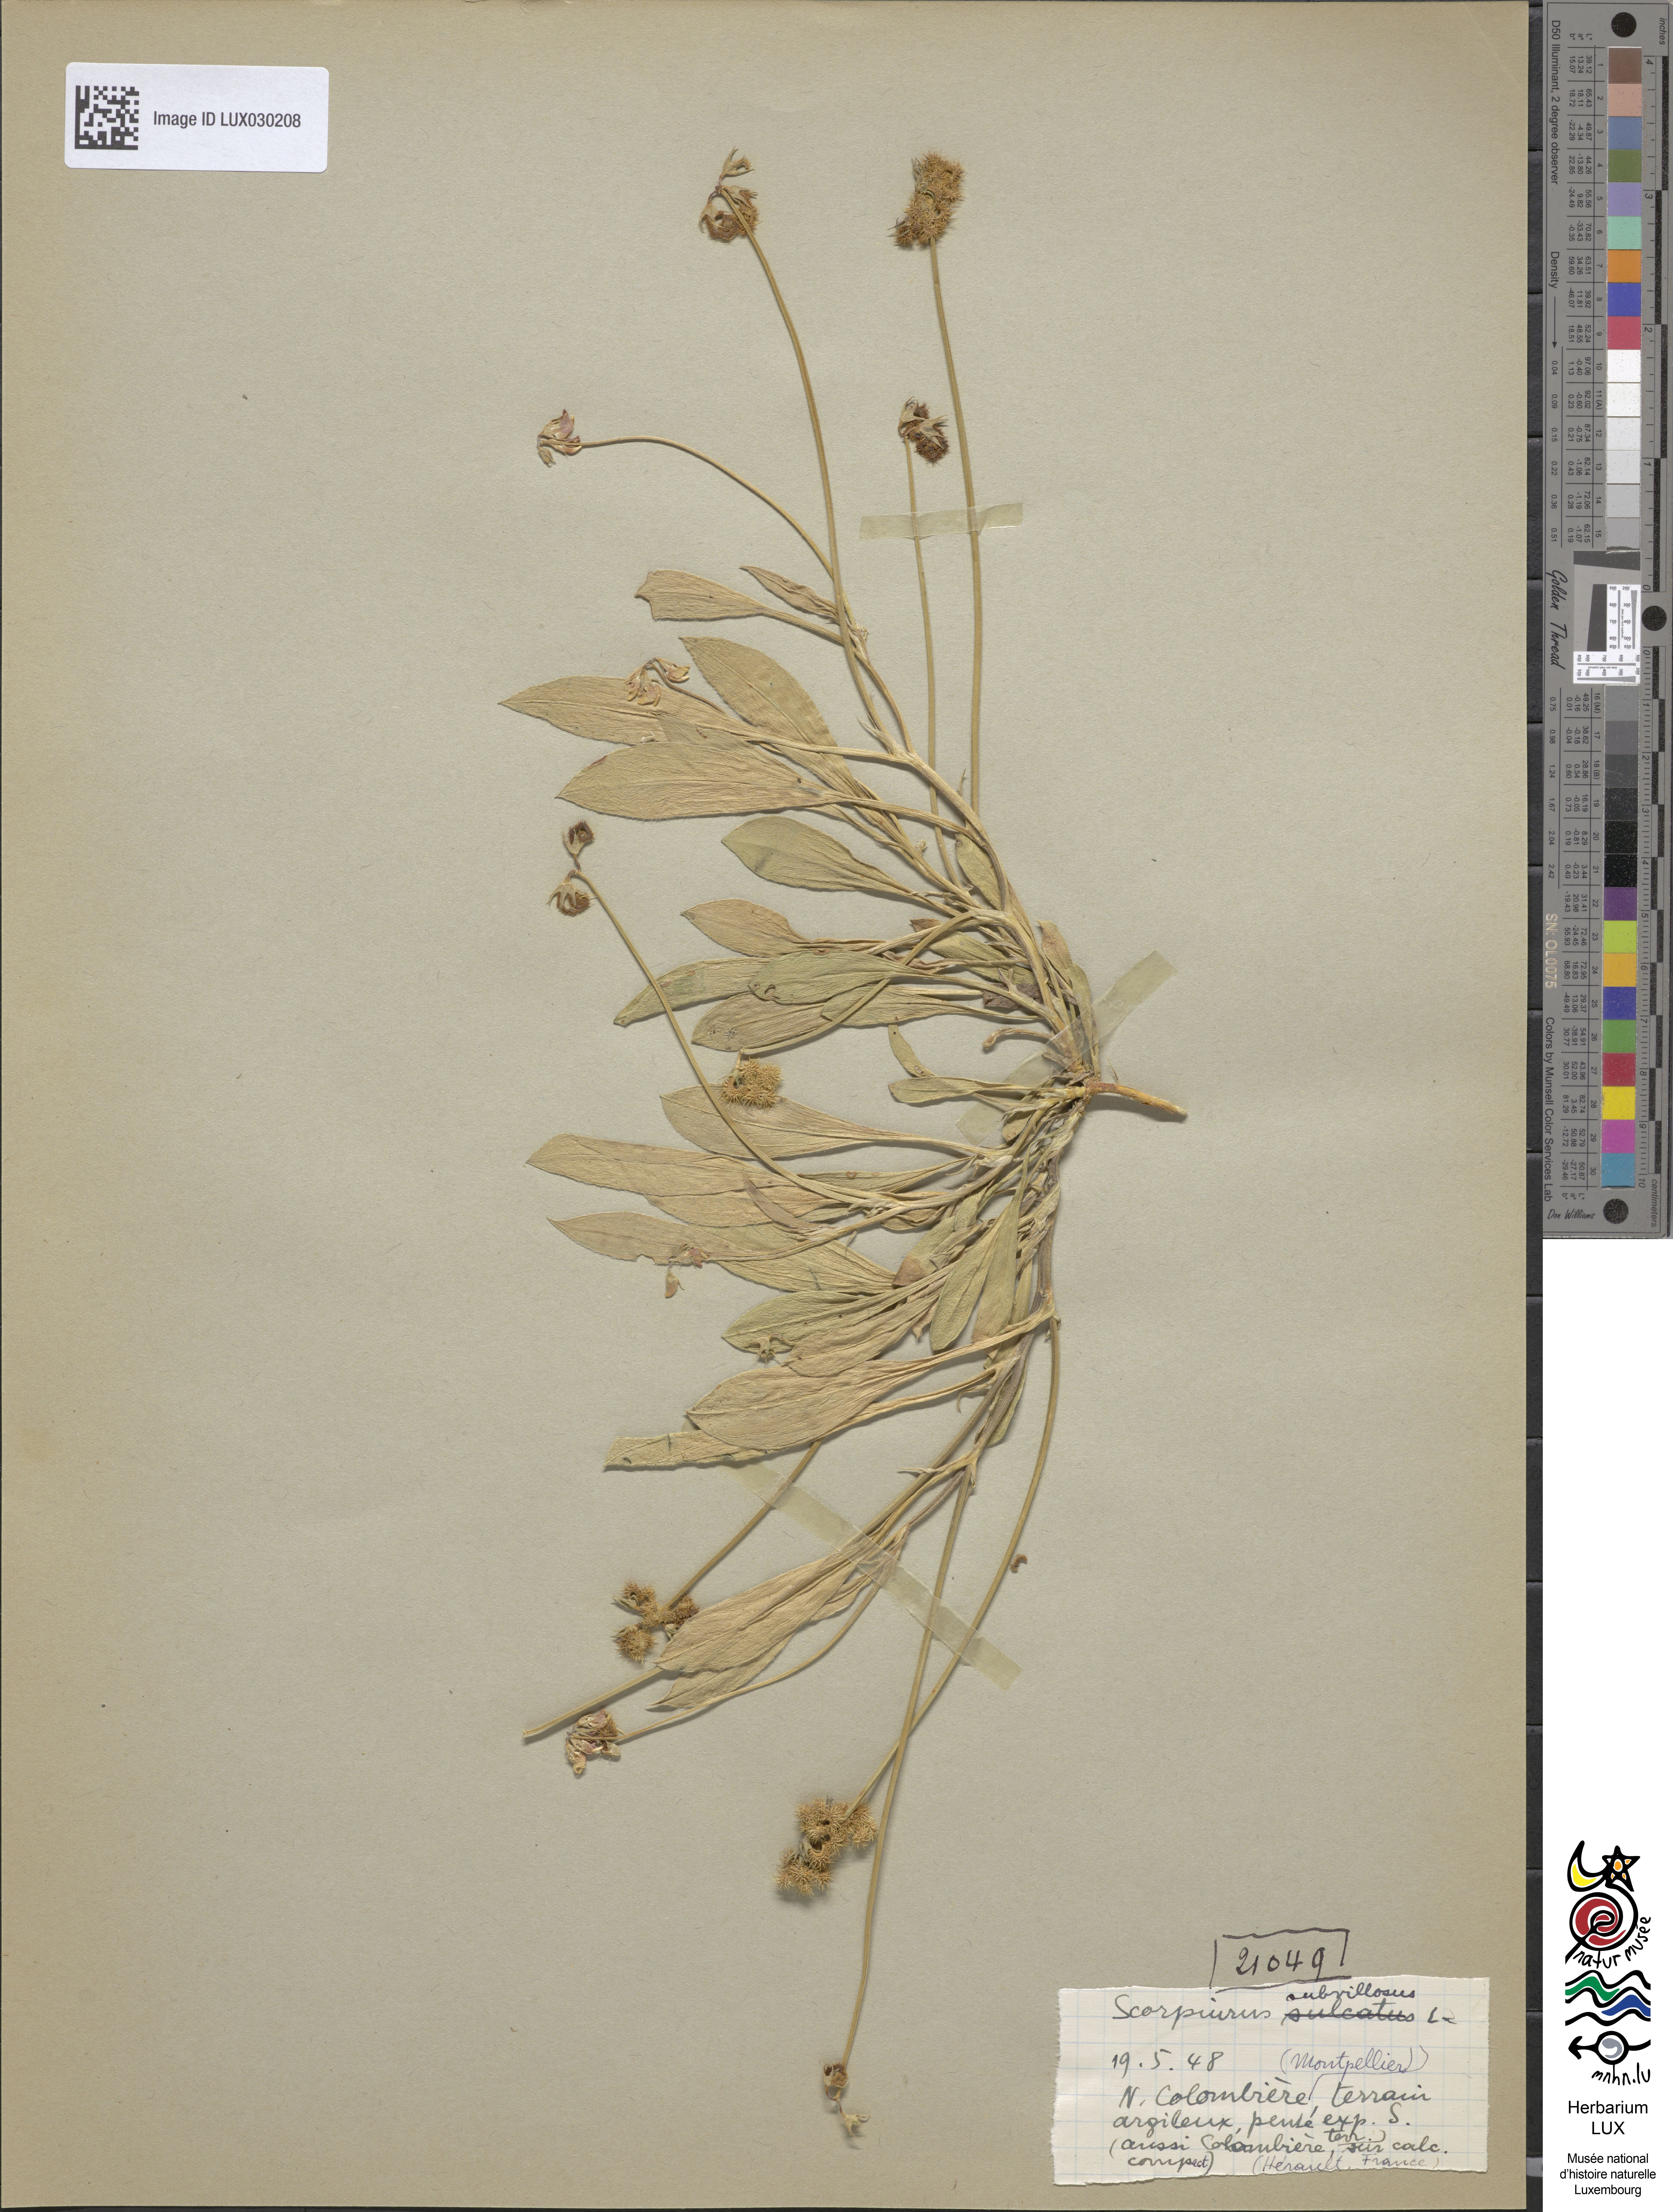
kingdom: Plantae
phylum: Tracheophyta
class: Magnoliopsida
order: Fabales
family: Fabaceae
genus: Scorpiurus
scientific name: Scorpiurus muricatus
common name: Caterpillar-plant
